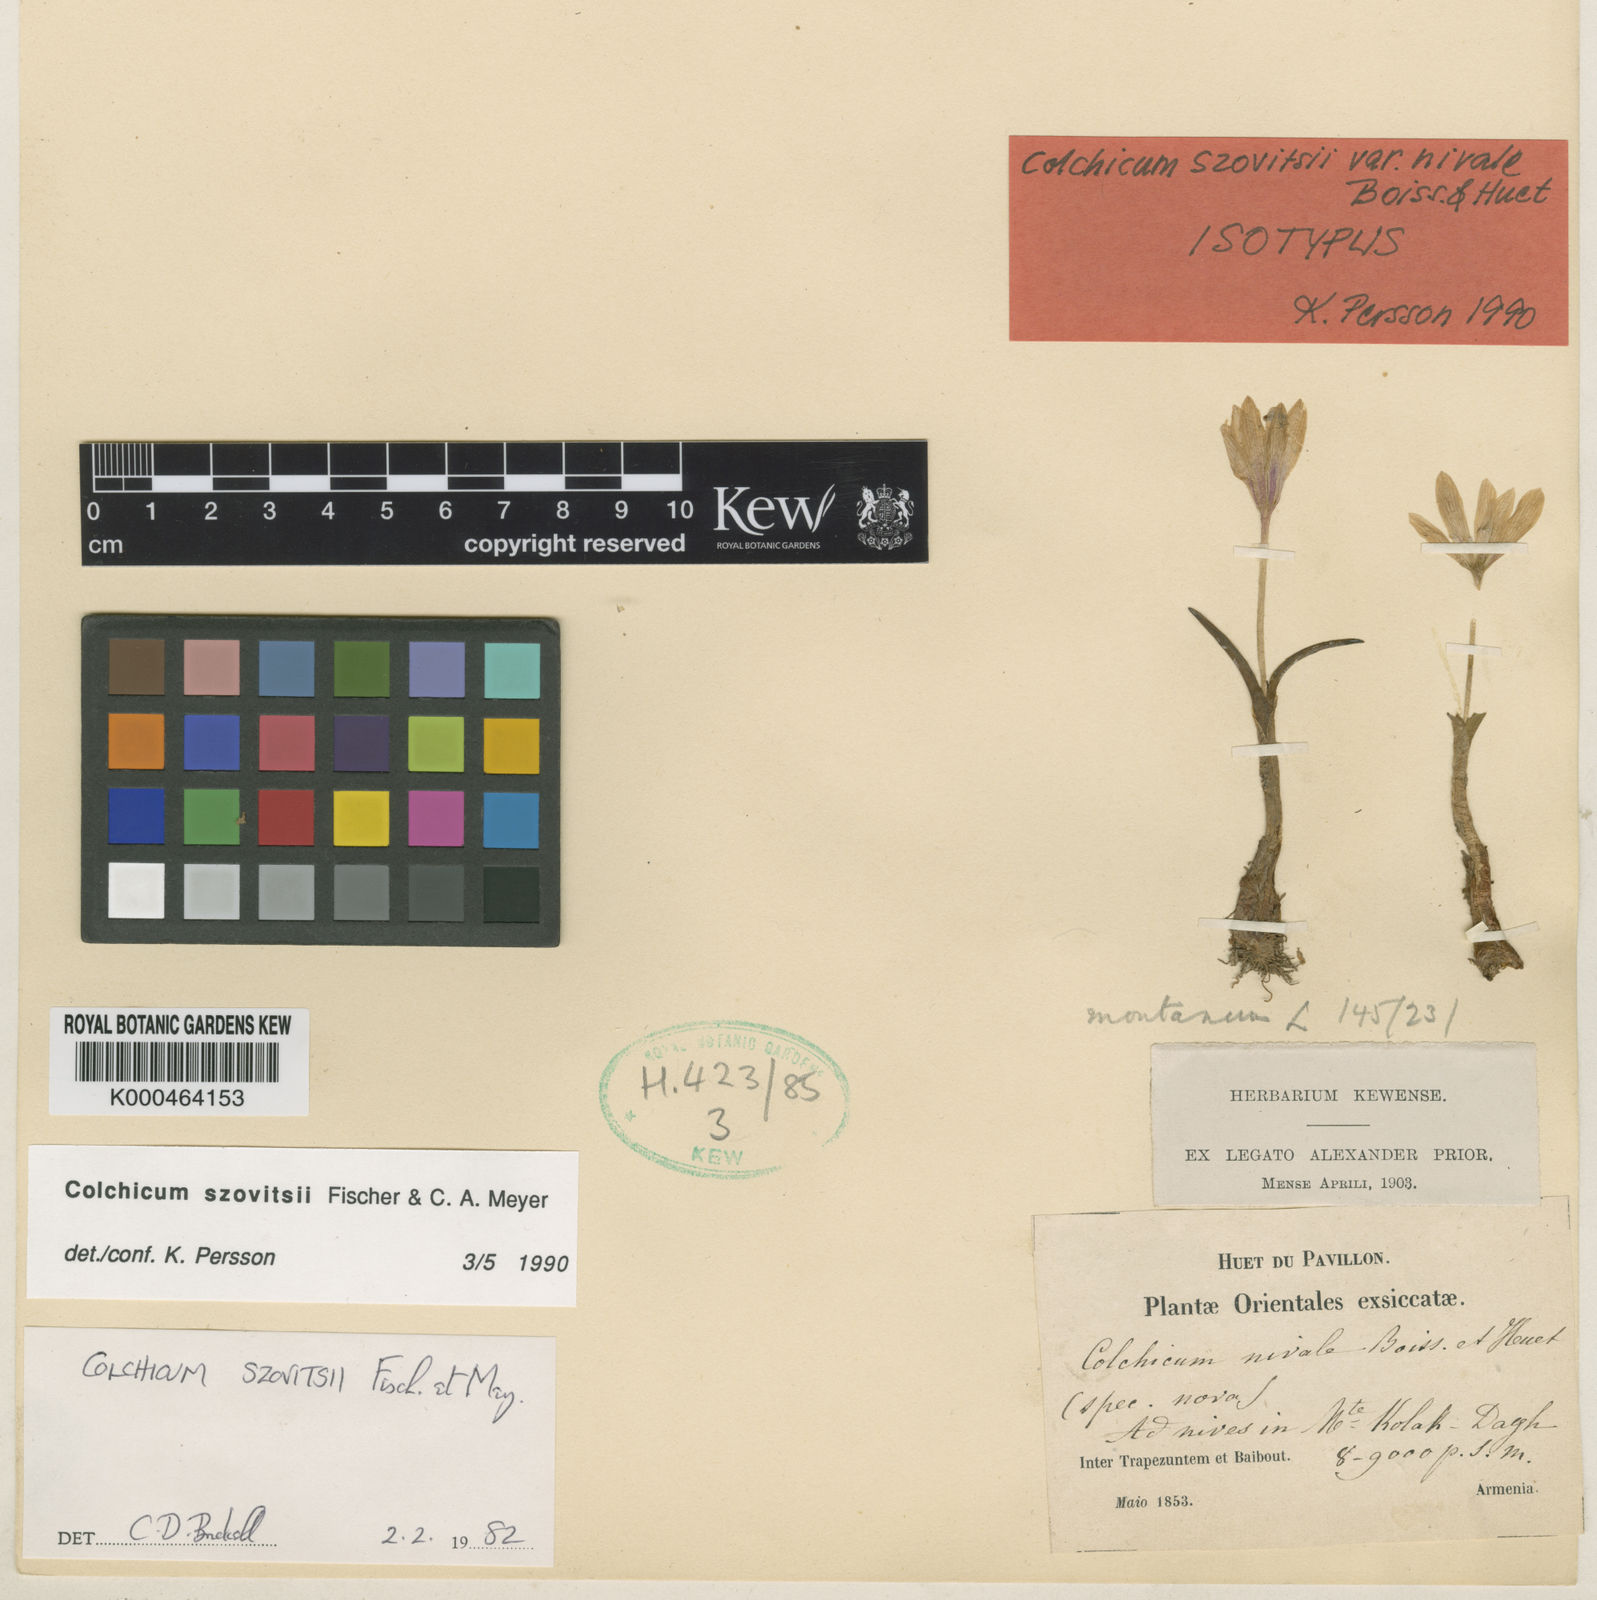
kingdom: Plantae
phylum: Tracheophyta
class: Liliopsida
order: Liliales
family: Colchicaceae
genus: Colchicum
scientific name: Colchicum szovitsii
